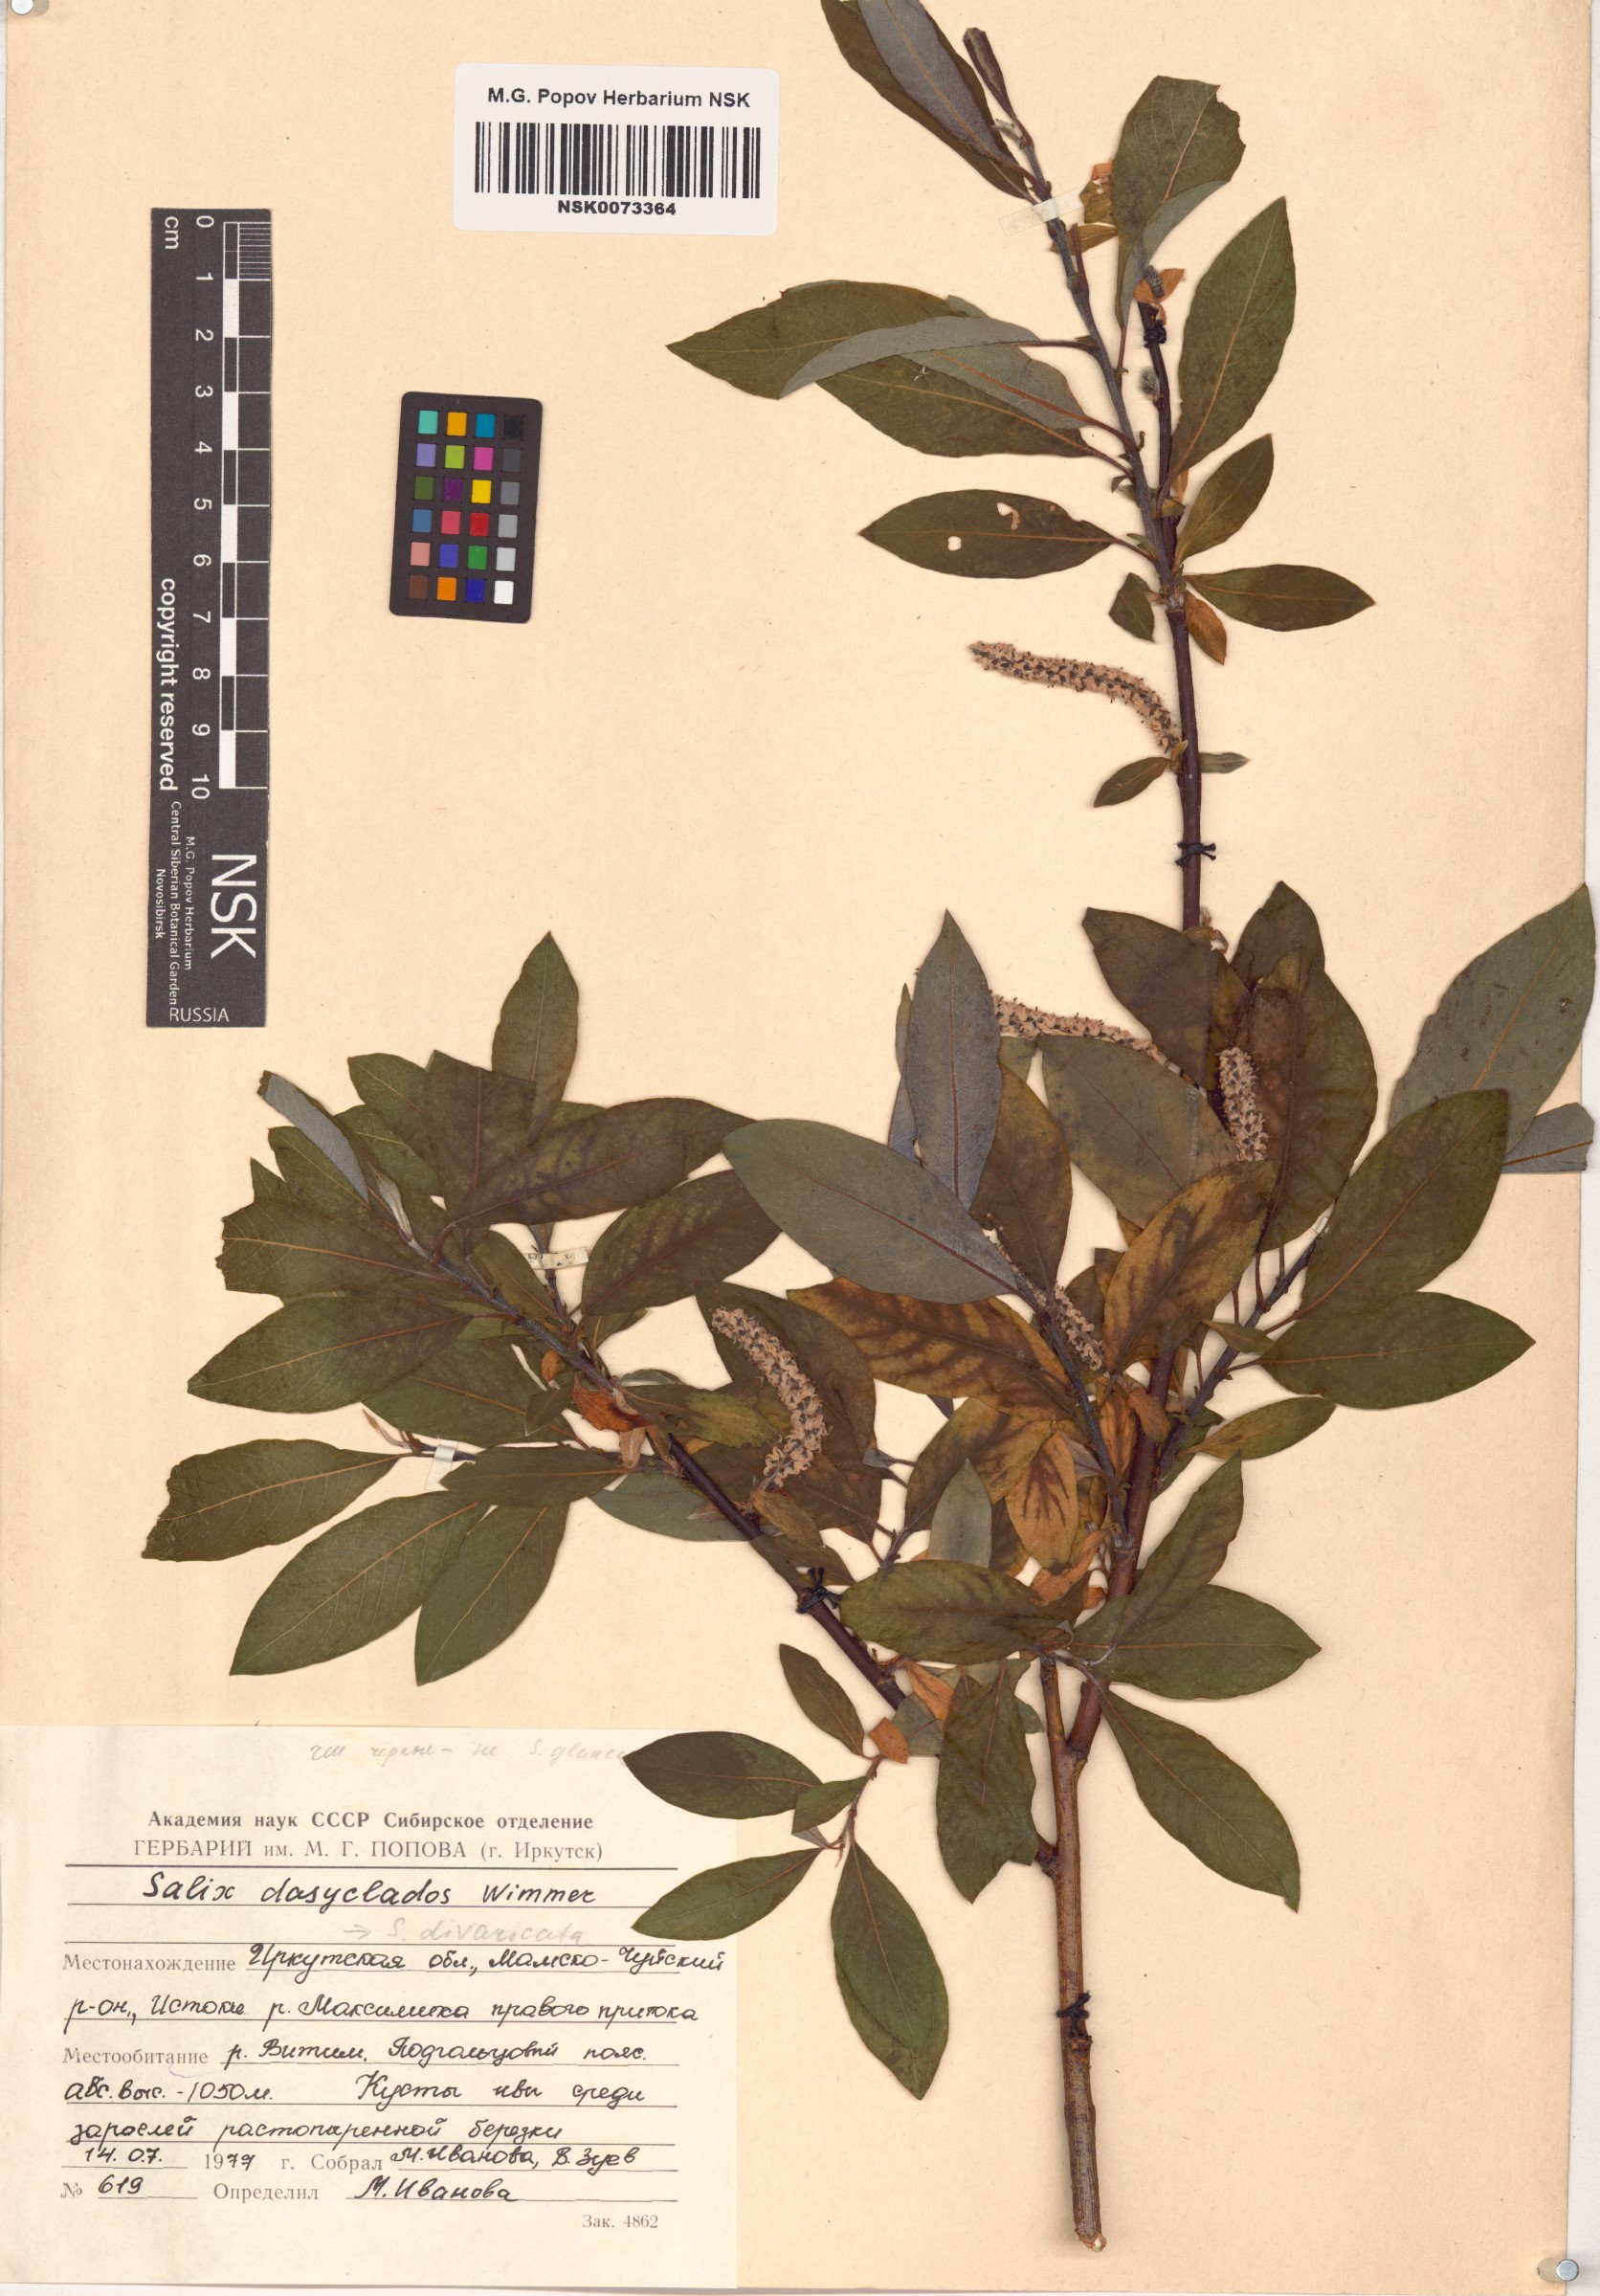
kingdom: Plantae
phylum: Tracheophyta
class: Magnoliopsida
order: Malpighiales
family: Salicaceae
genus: Salix
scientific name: Salix gmelinii
